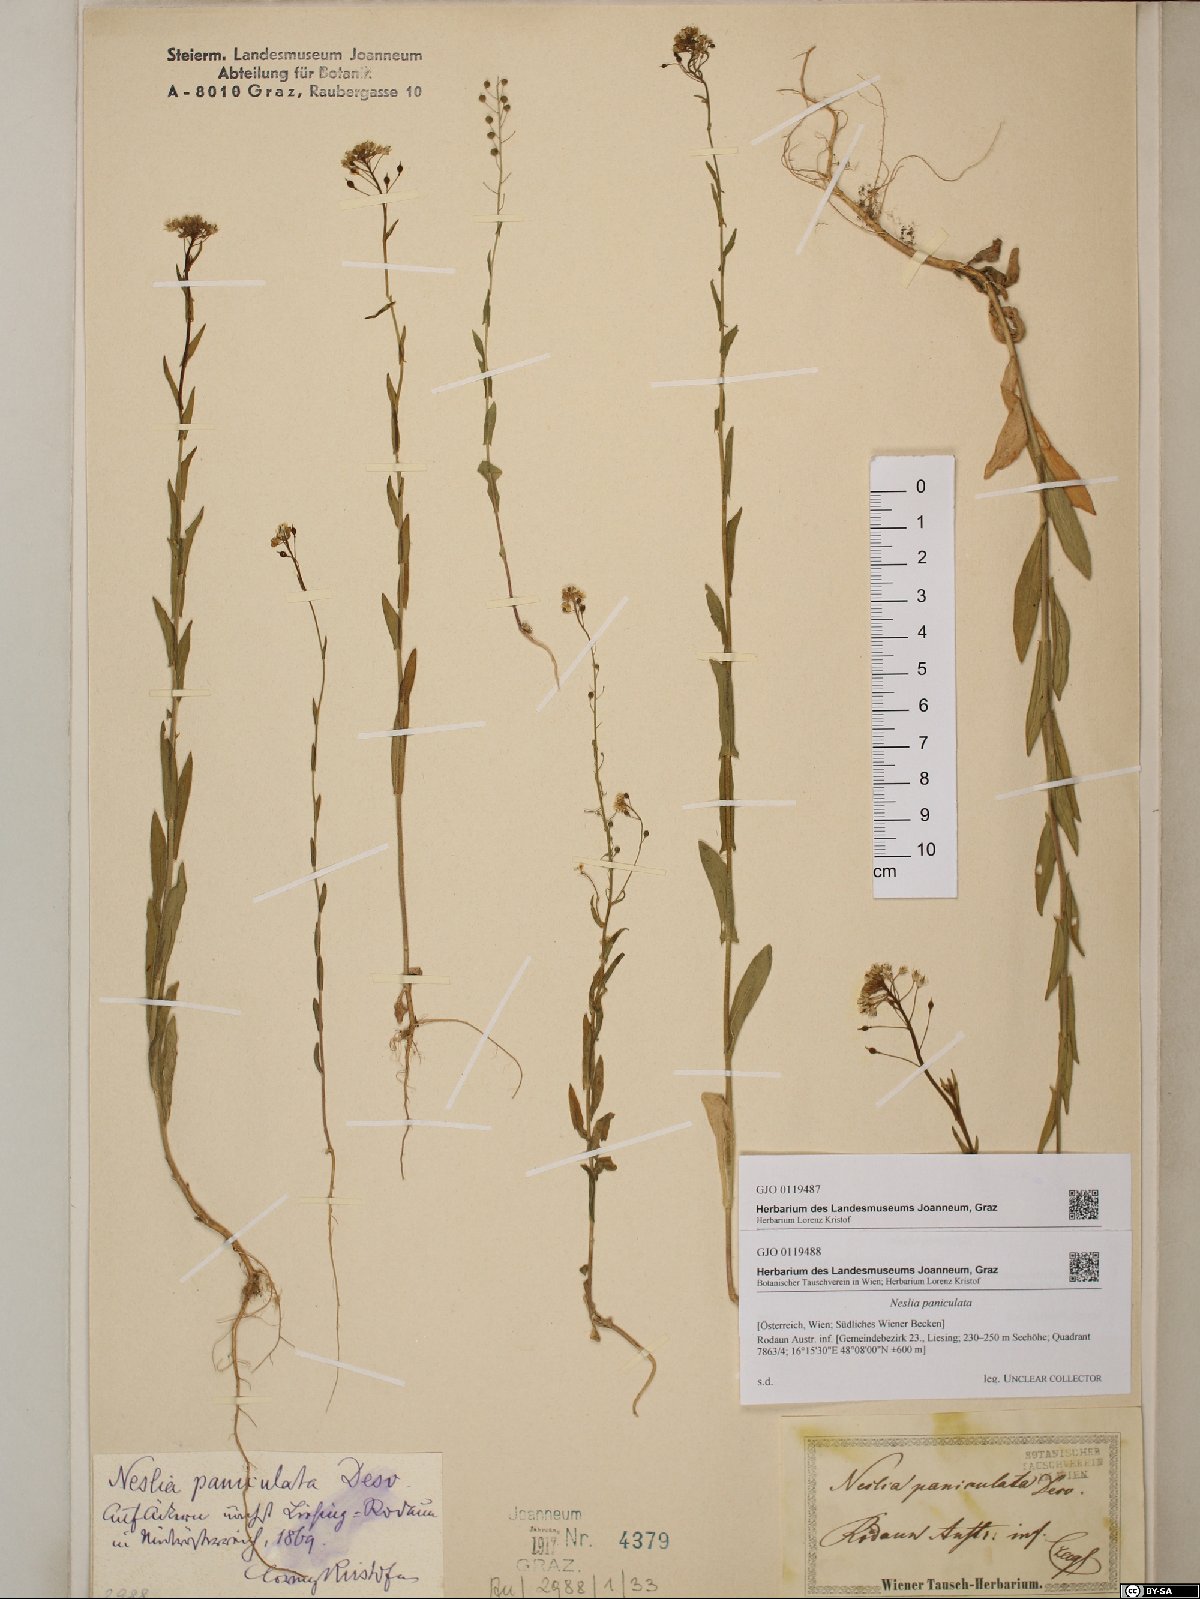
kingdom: Plantae
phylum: Tracheophyta
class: Magnoliopsida
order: Brassicales
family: Brassicaceae
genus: Neslia
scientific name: Neslia paniculata
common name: Ball mustard
